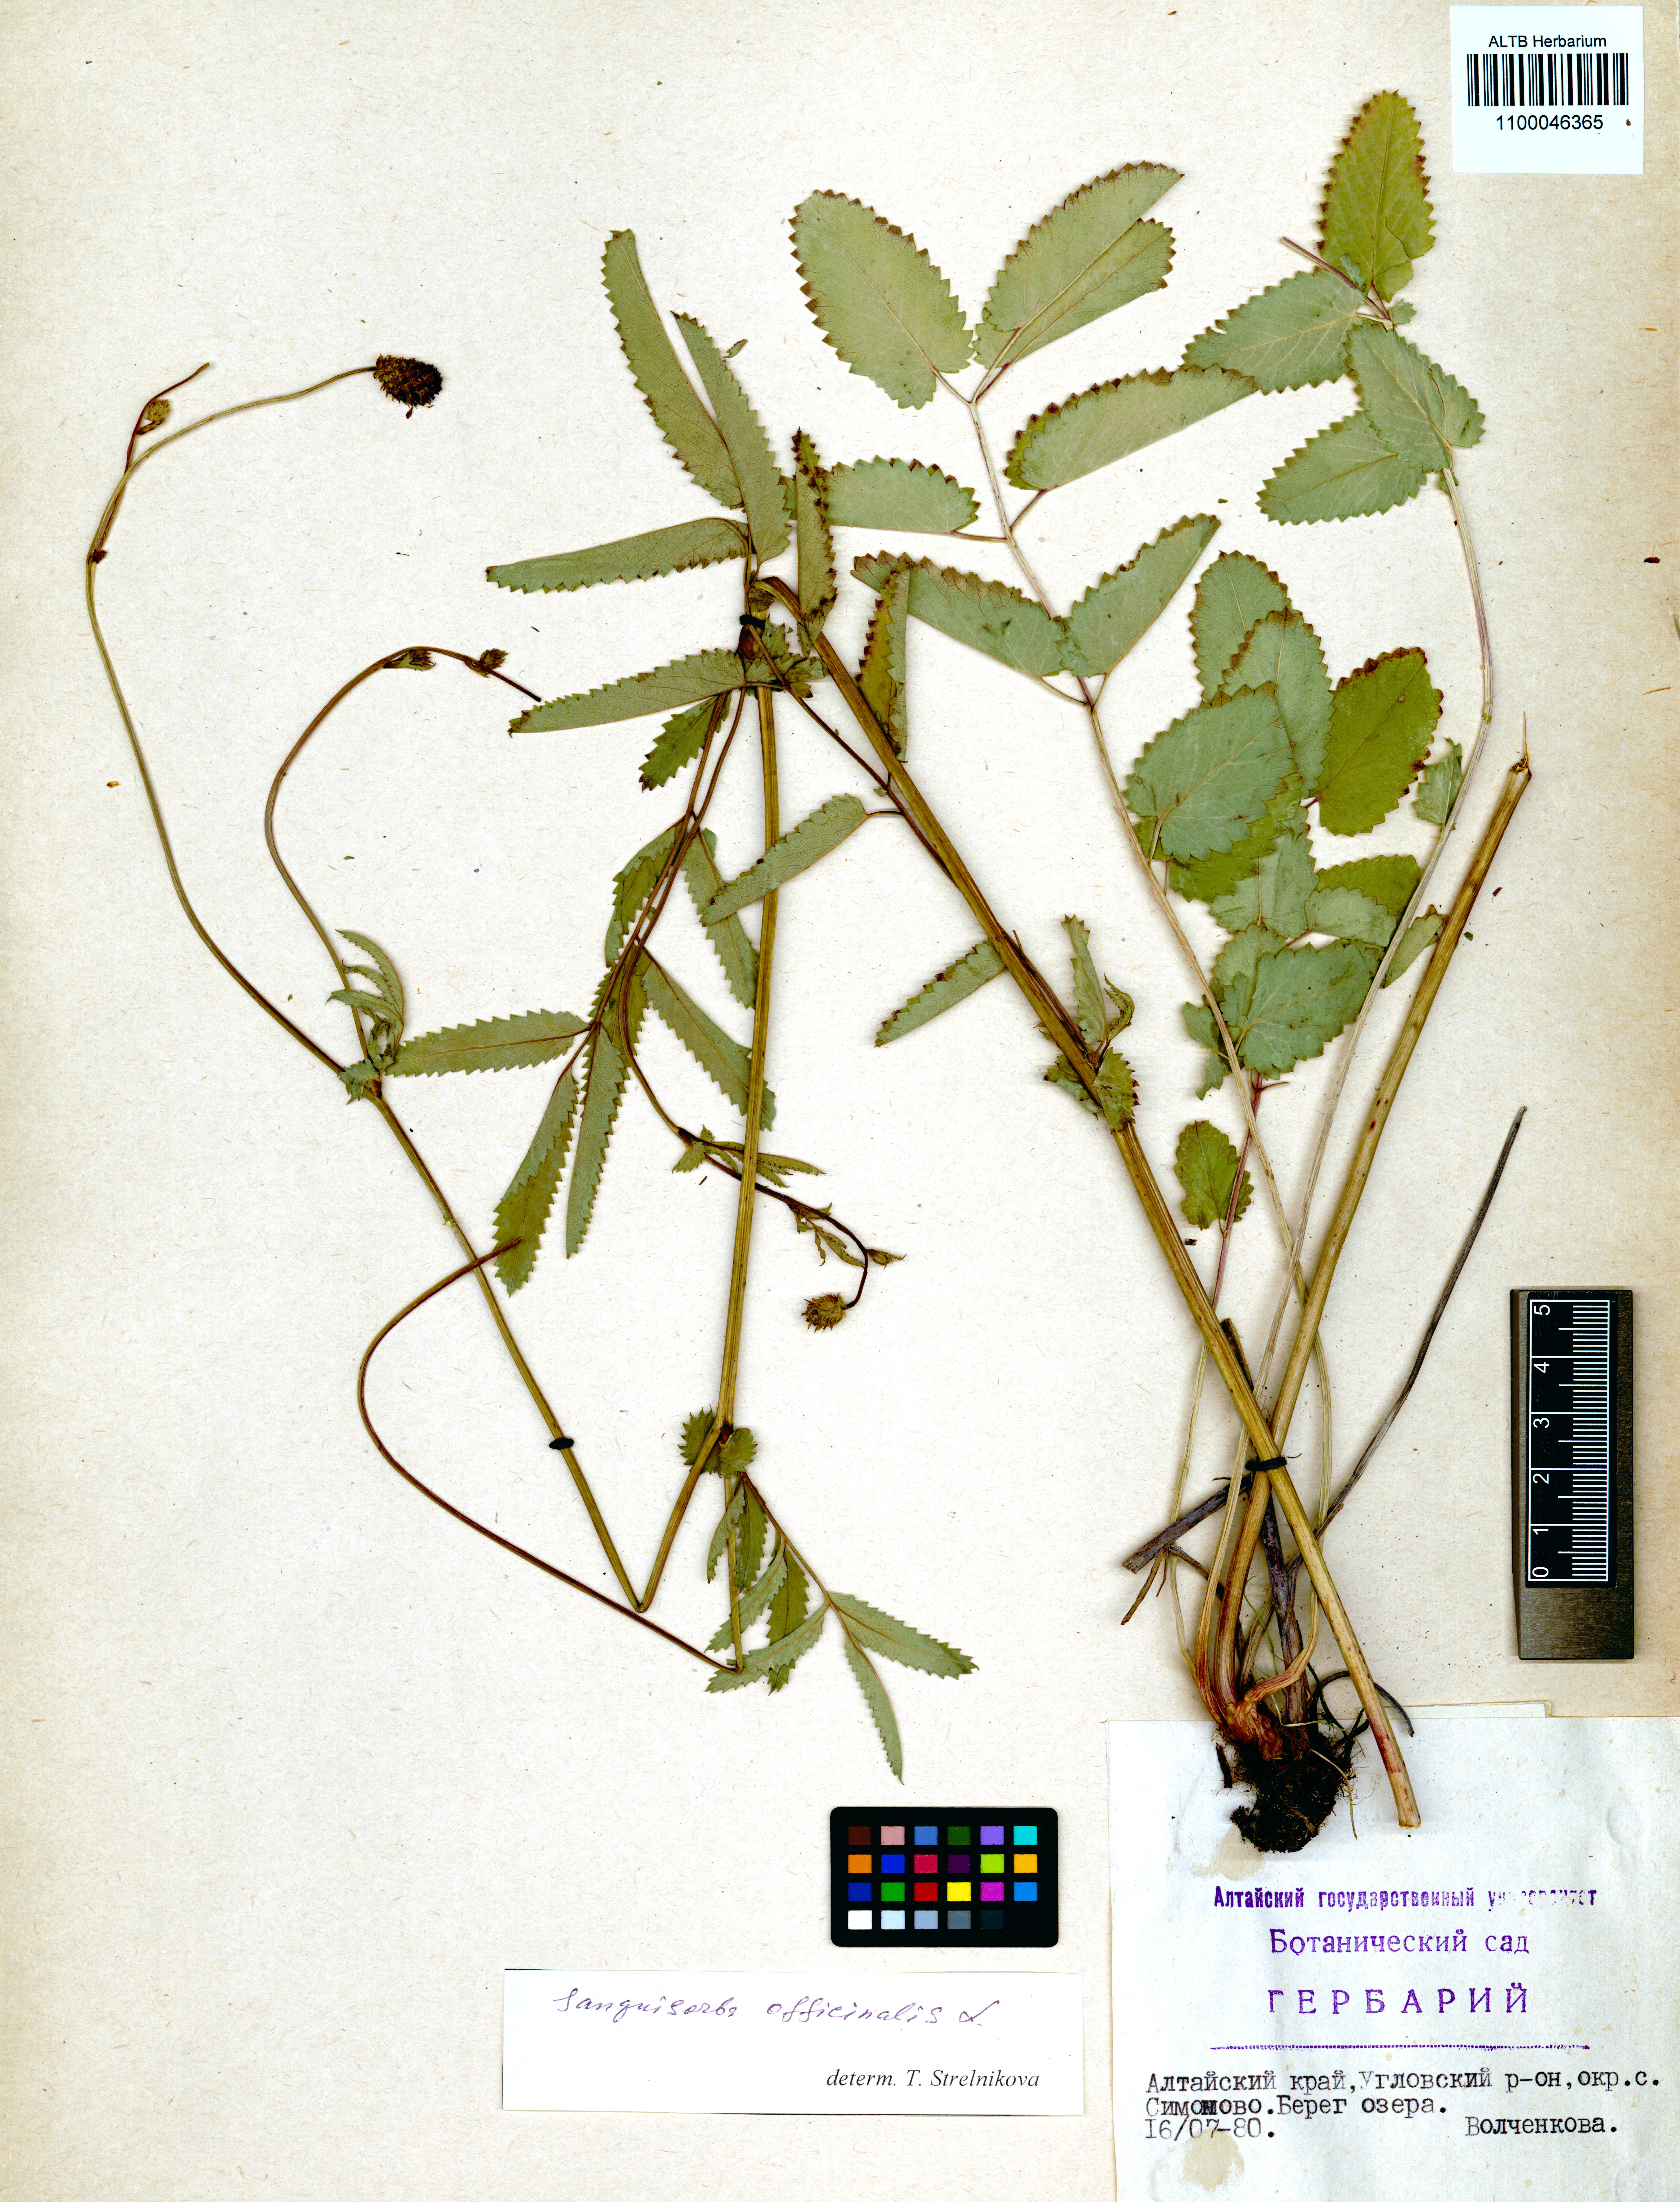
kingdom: Plantae
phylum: Tracheophyta
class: Magnoliopsida
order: Rosales
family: Rosaceae
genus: Sanguisorba
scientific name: Sanguisorba officinalis
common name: Great burnet
